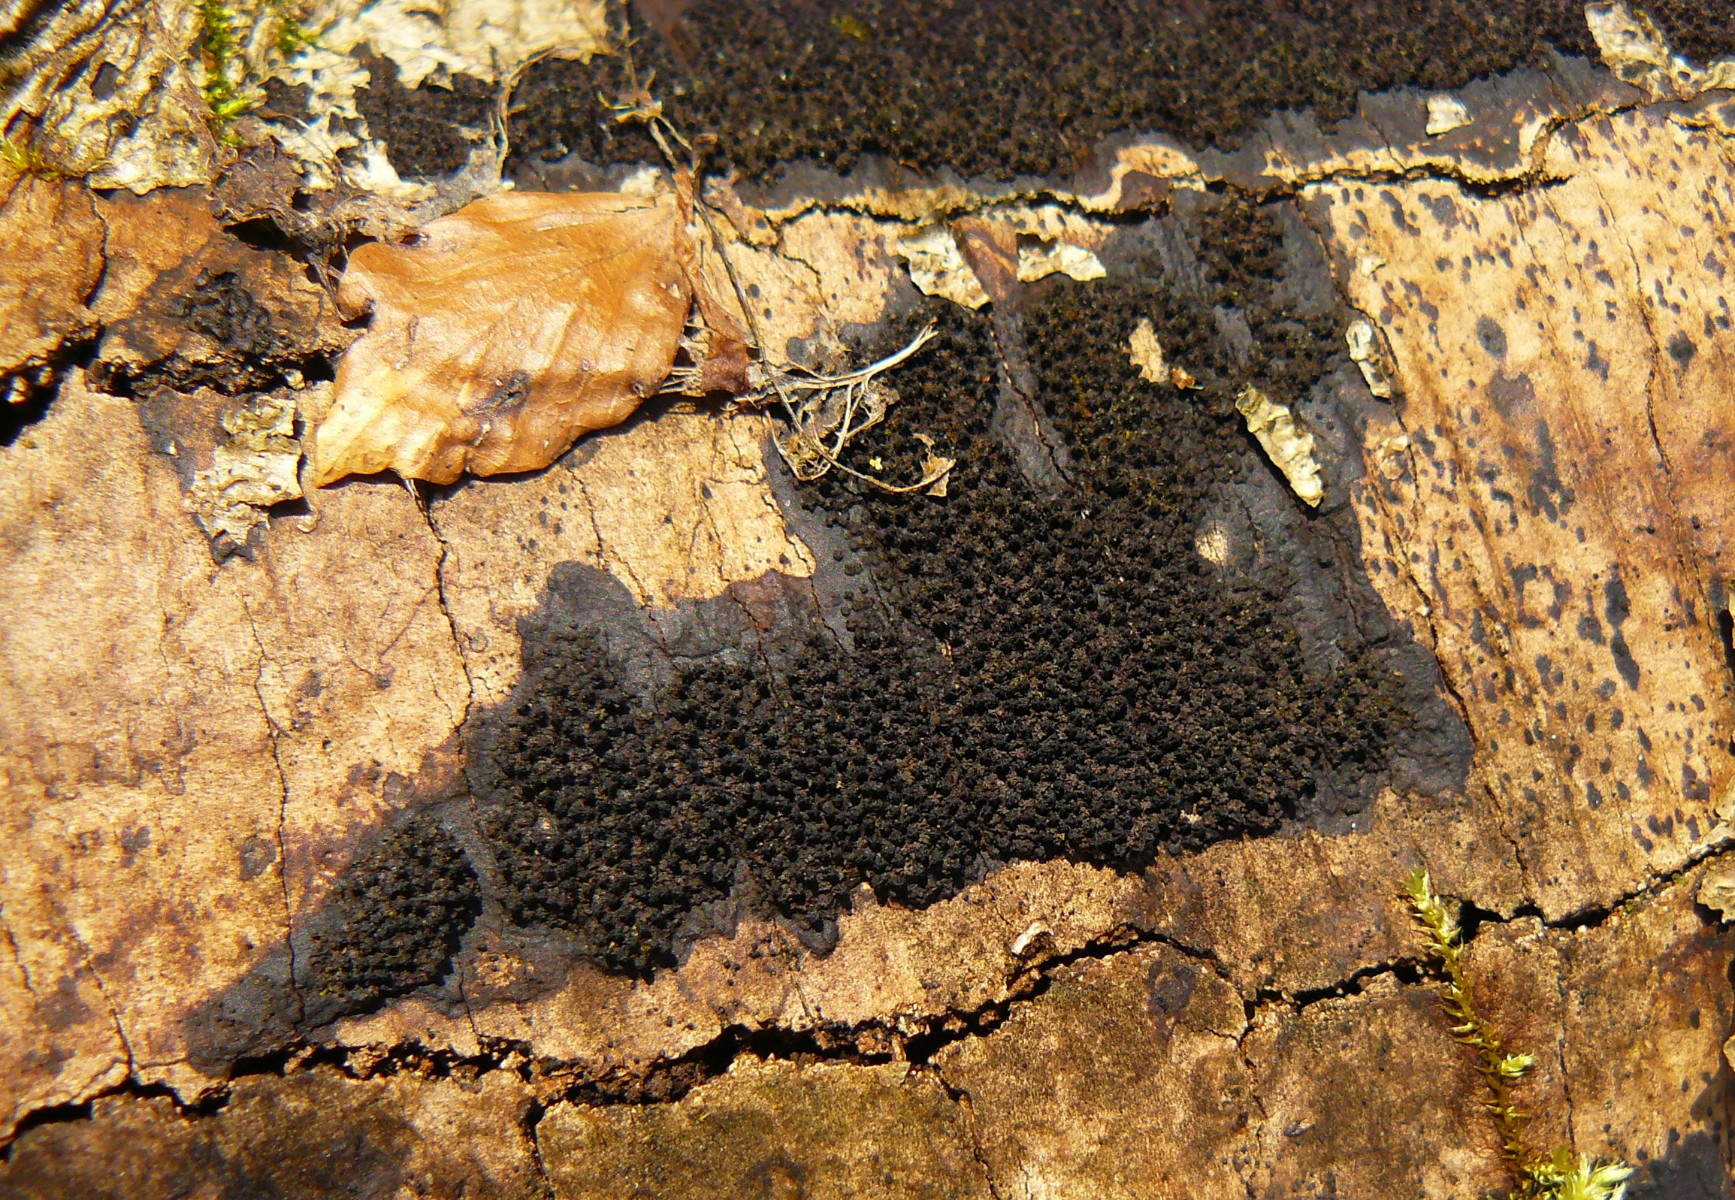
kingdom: Fungi
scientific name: Fungi
